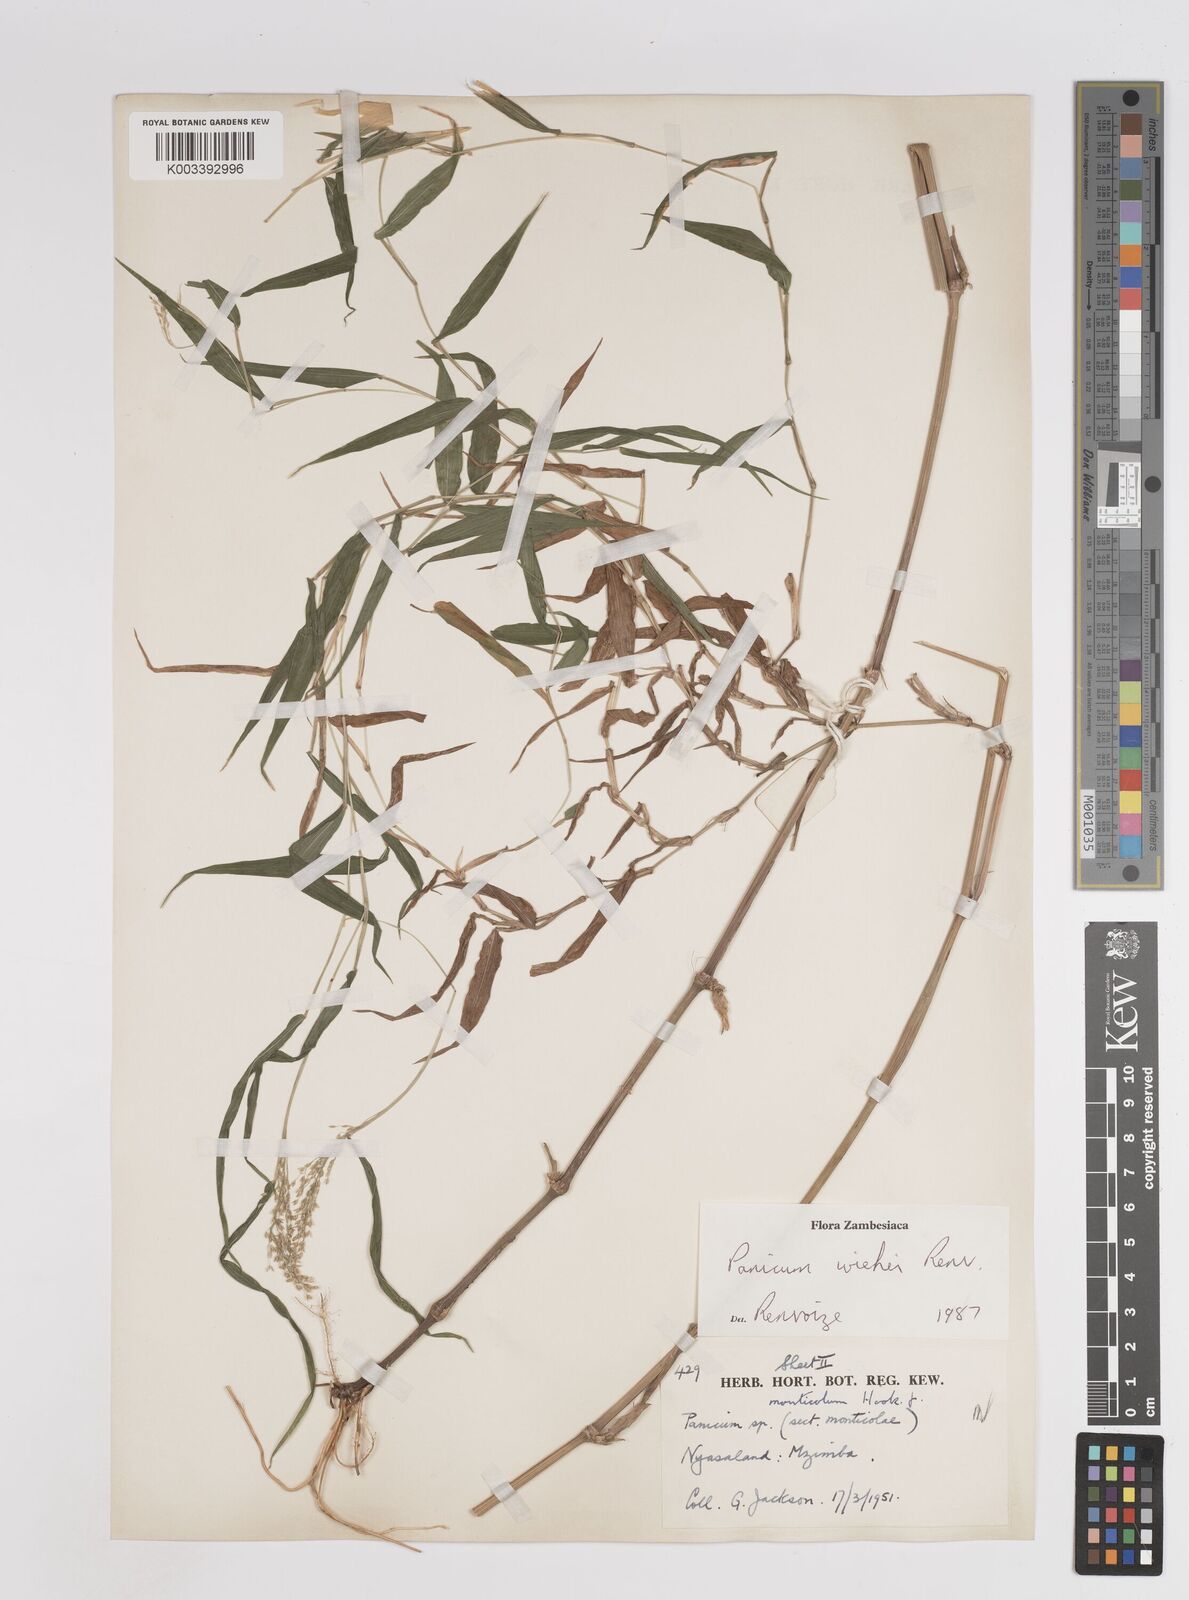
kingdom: Plantae
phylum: Tracheophyta
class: Liliopsida
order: Poales
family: Poaceae
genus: Panicum
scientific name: Panicum wiehei
